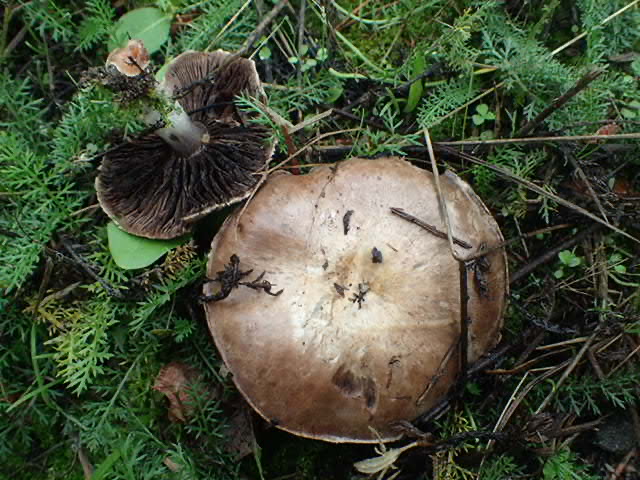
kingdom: Fungi
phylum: Basidiomycota
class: Agaricomycetes
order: Agaricales
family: Agaricaceae
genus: Agaricus
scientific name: Agaricus
